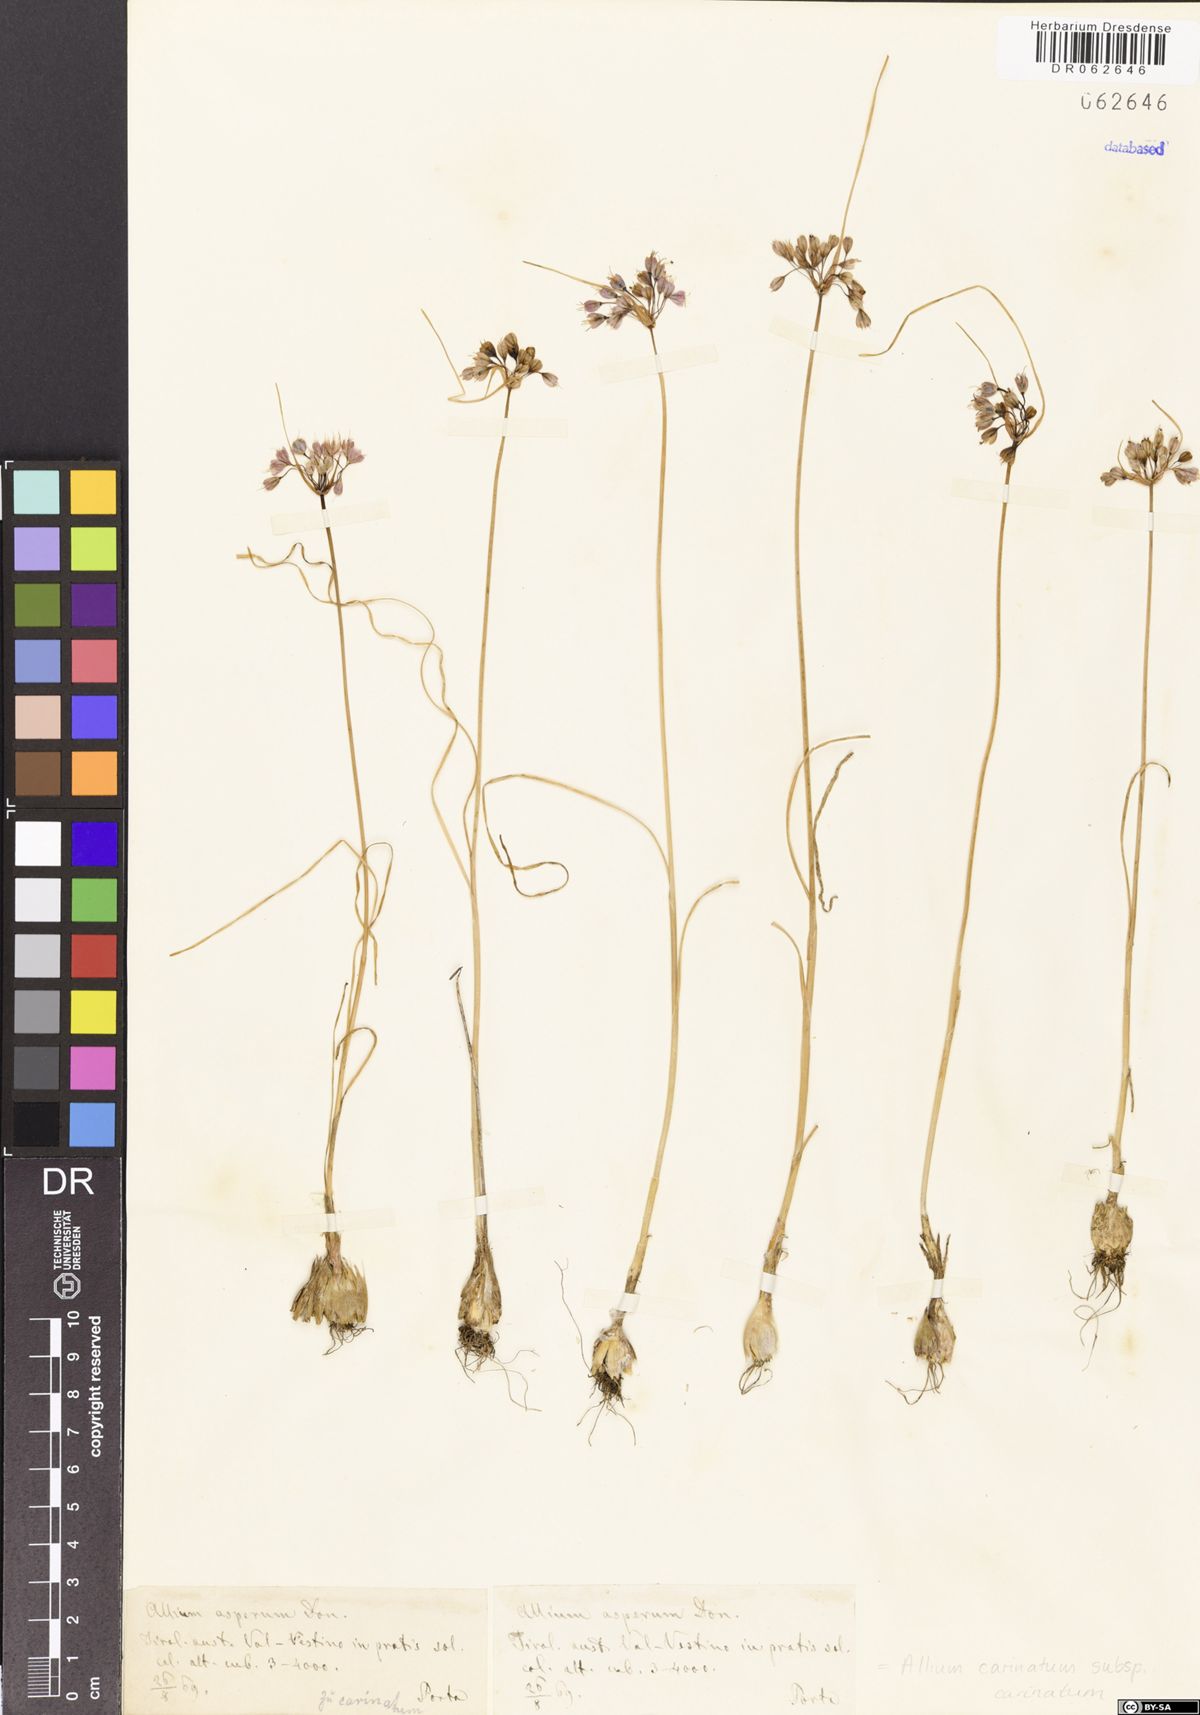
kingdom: Plantae
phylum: Tracheophyta
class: Liliopsida
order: Asparagales
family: Amaryllidaceae
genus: Allium
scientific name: Allium carinatum
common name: Keeled garlic
